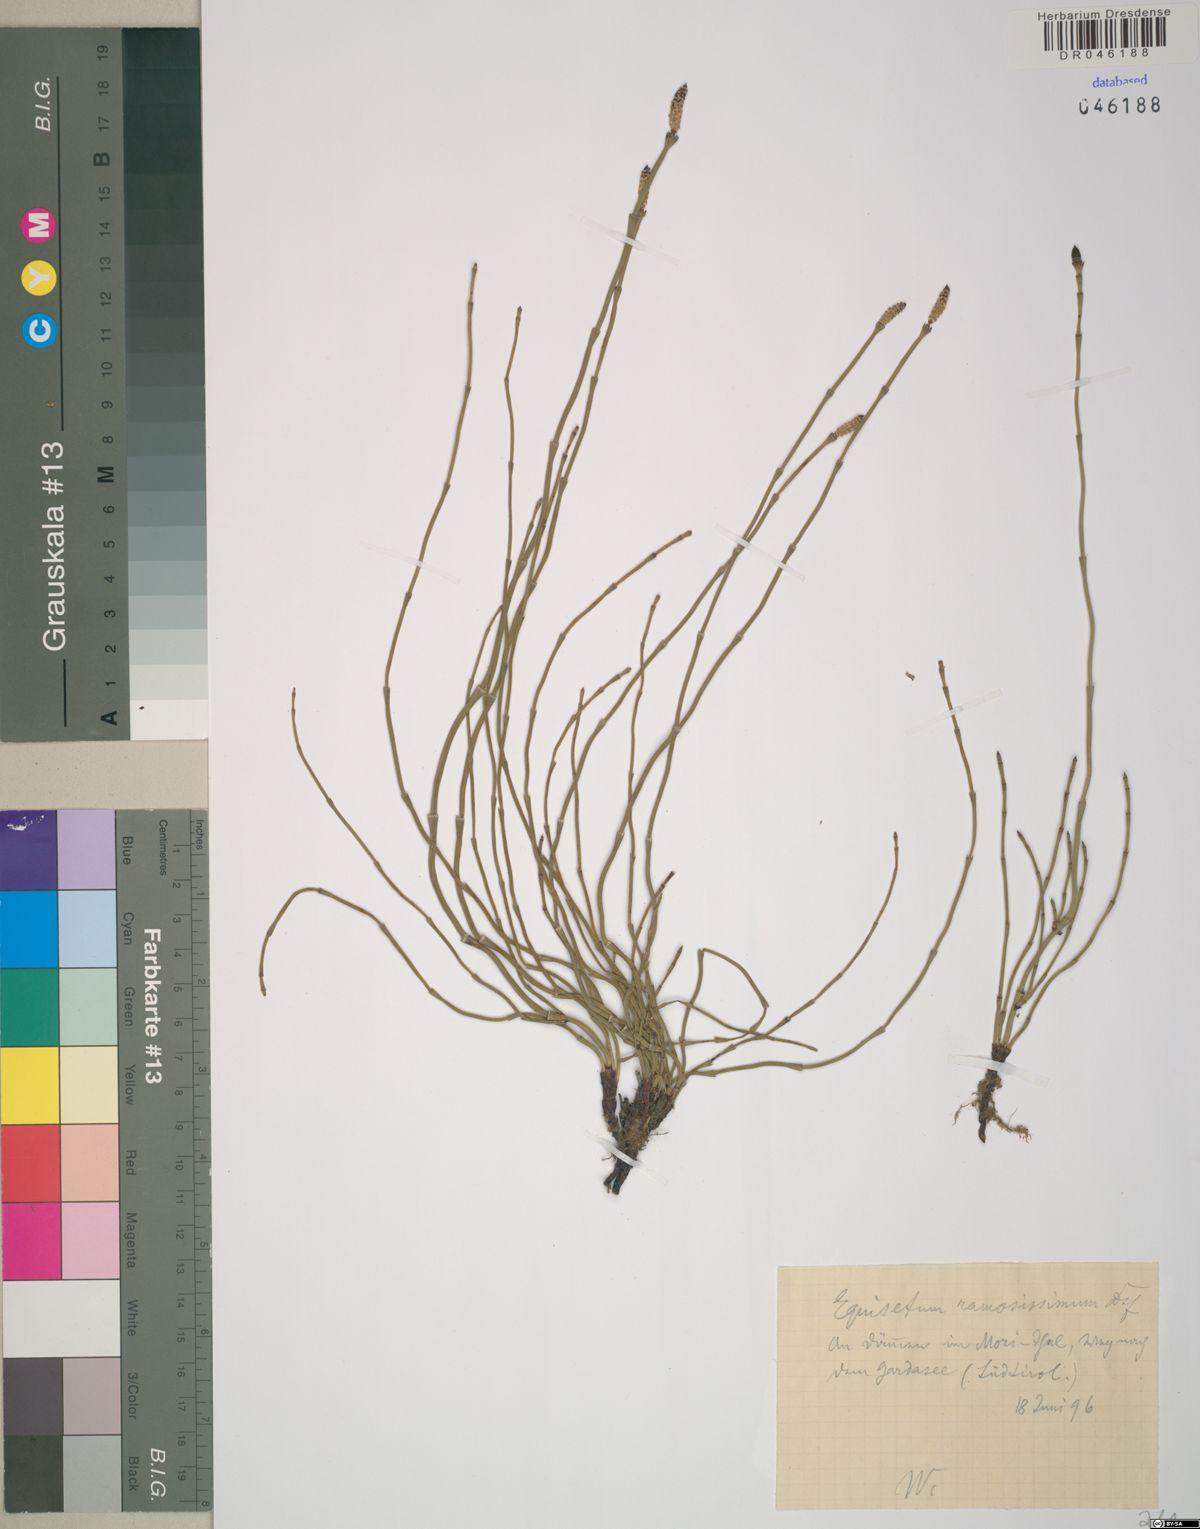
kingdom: Plantae
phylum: Tracheophyta
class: Polypodiopsida
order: Equisetales
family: Equisetaceae
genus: Equisetum
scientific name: Equisetum ramosissimum
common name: Branched horsetail
